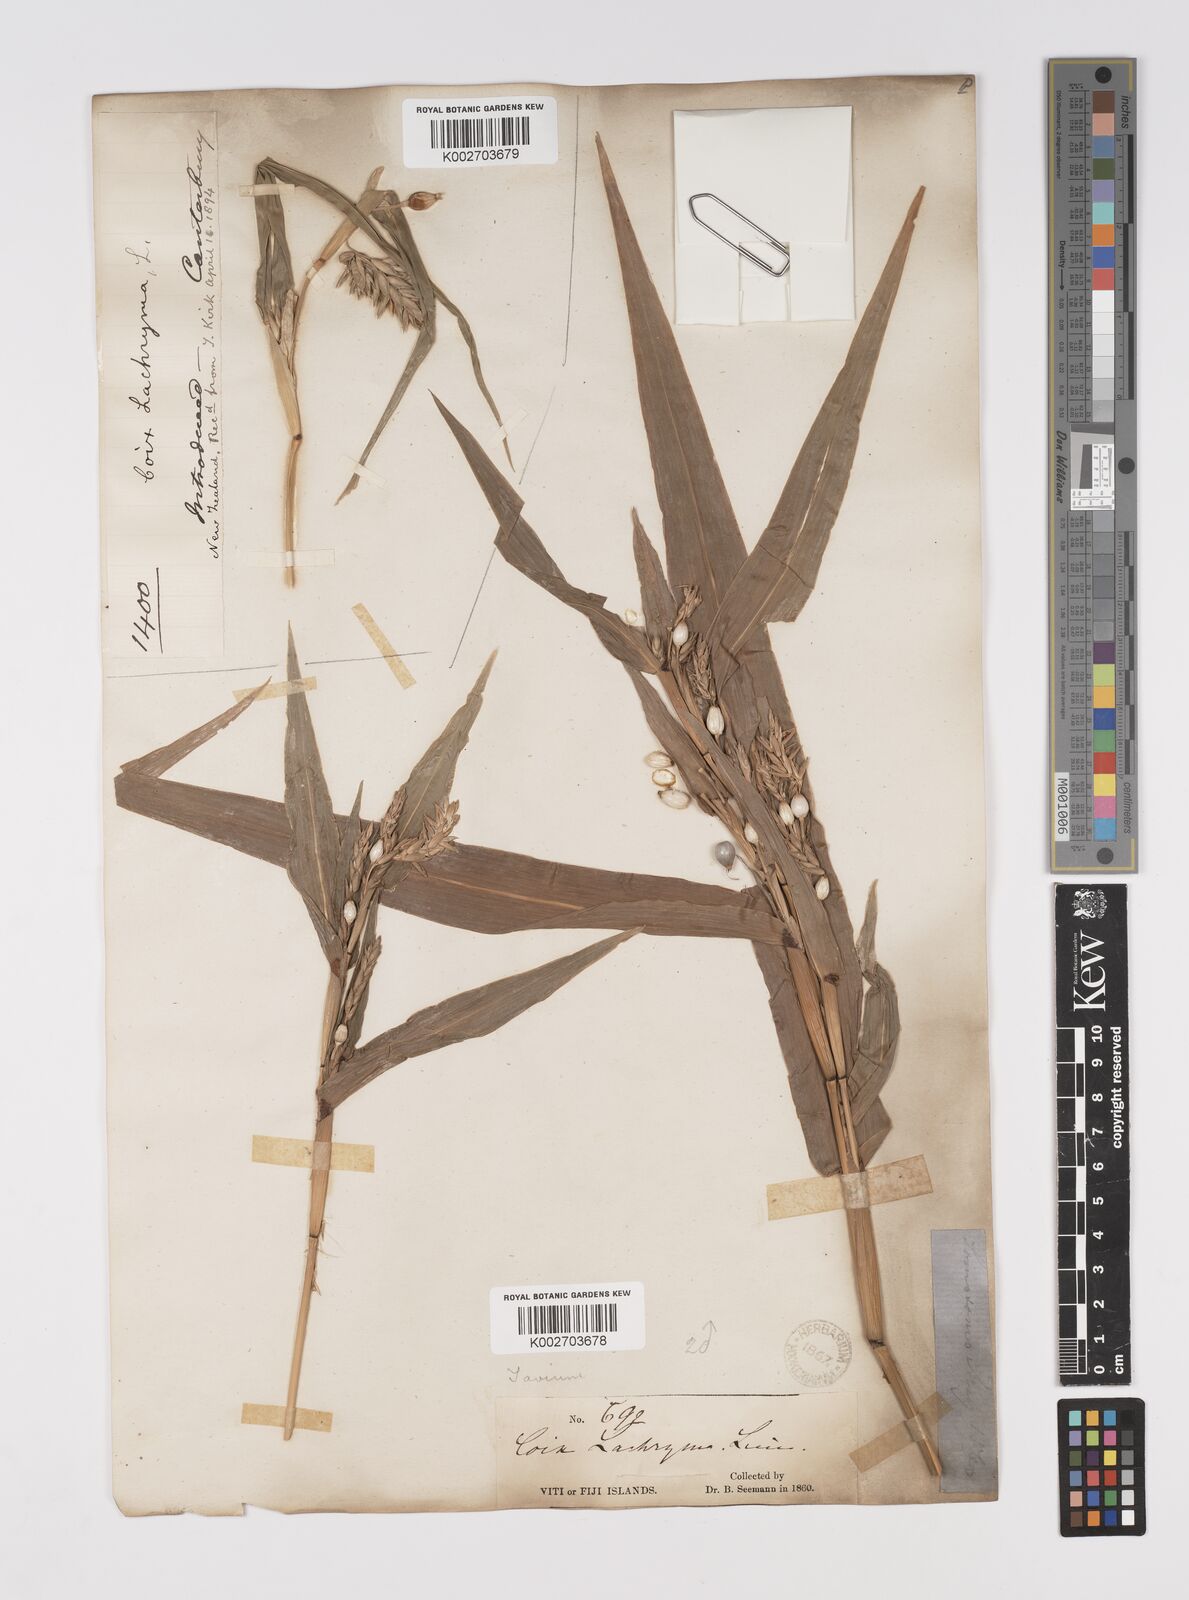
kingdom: Plantae
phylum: Tracheophyta
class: Liliopsida
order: Poales
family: Poaceae
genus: Coix
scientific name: Coix lacryma-jobi
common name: Job's tears
